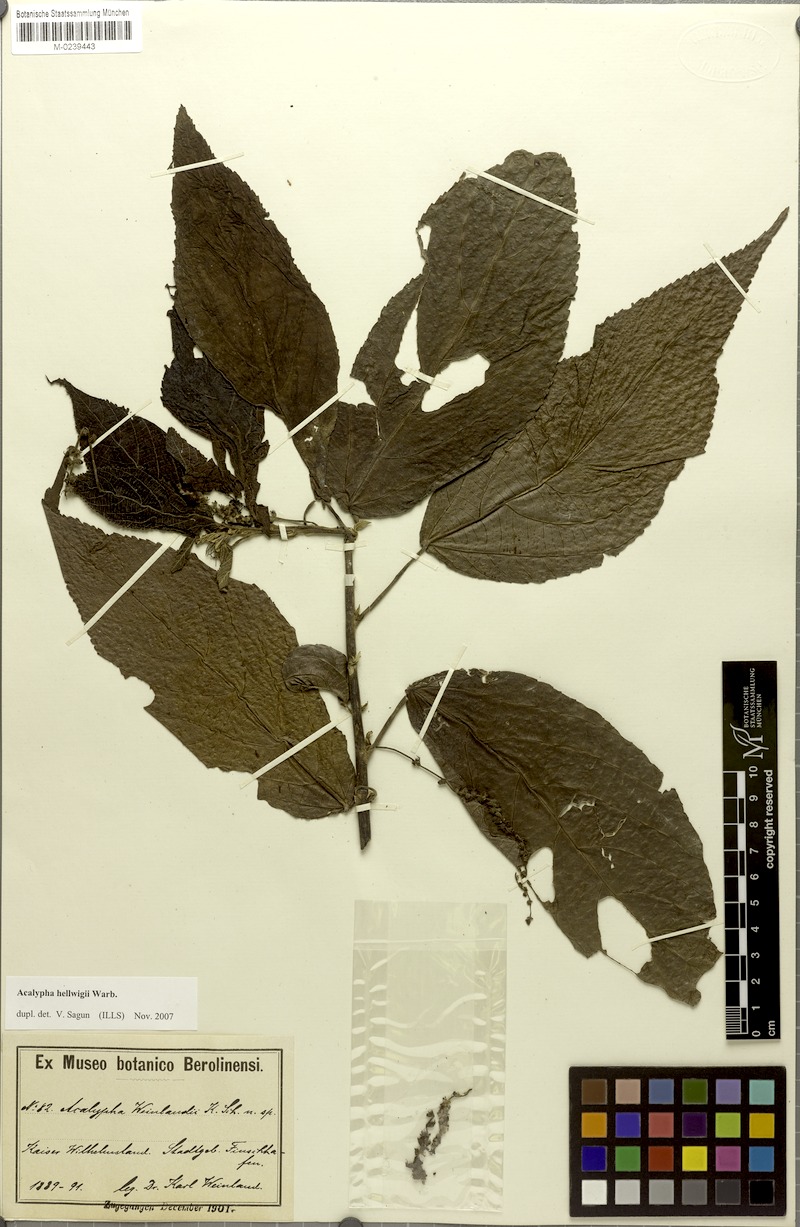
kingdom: Plantae
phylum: Tracheophyta
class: Magnoliopsida
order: Malpighiales
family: Euphorbiaceae
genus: Acalypha
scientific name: Acalypha hellwigii
